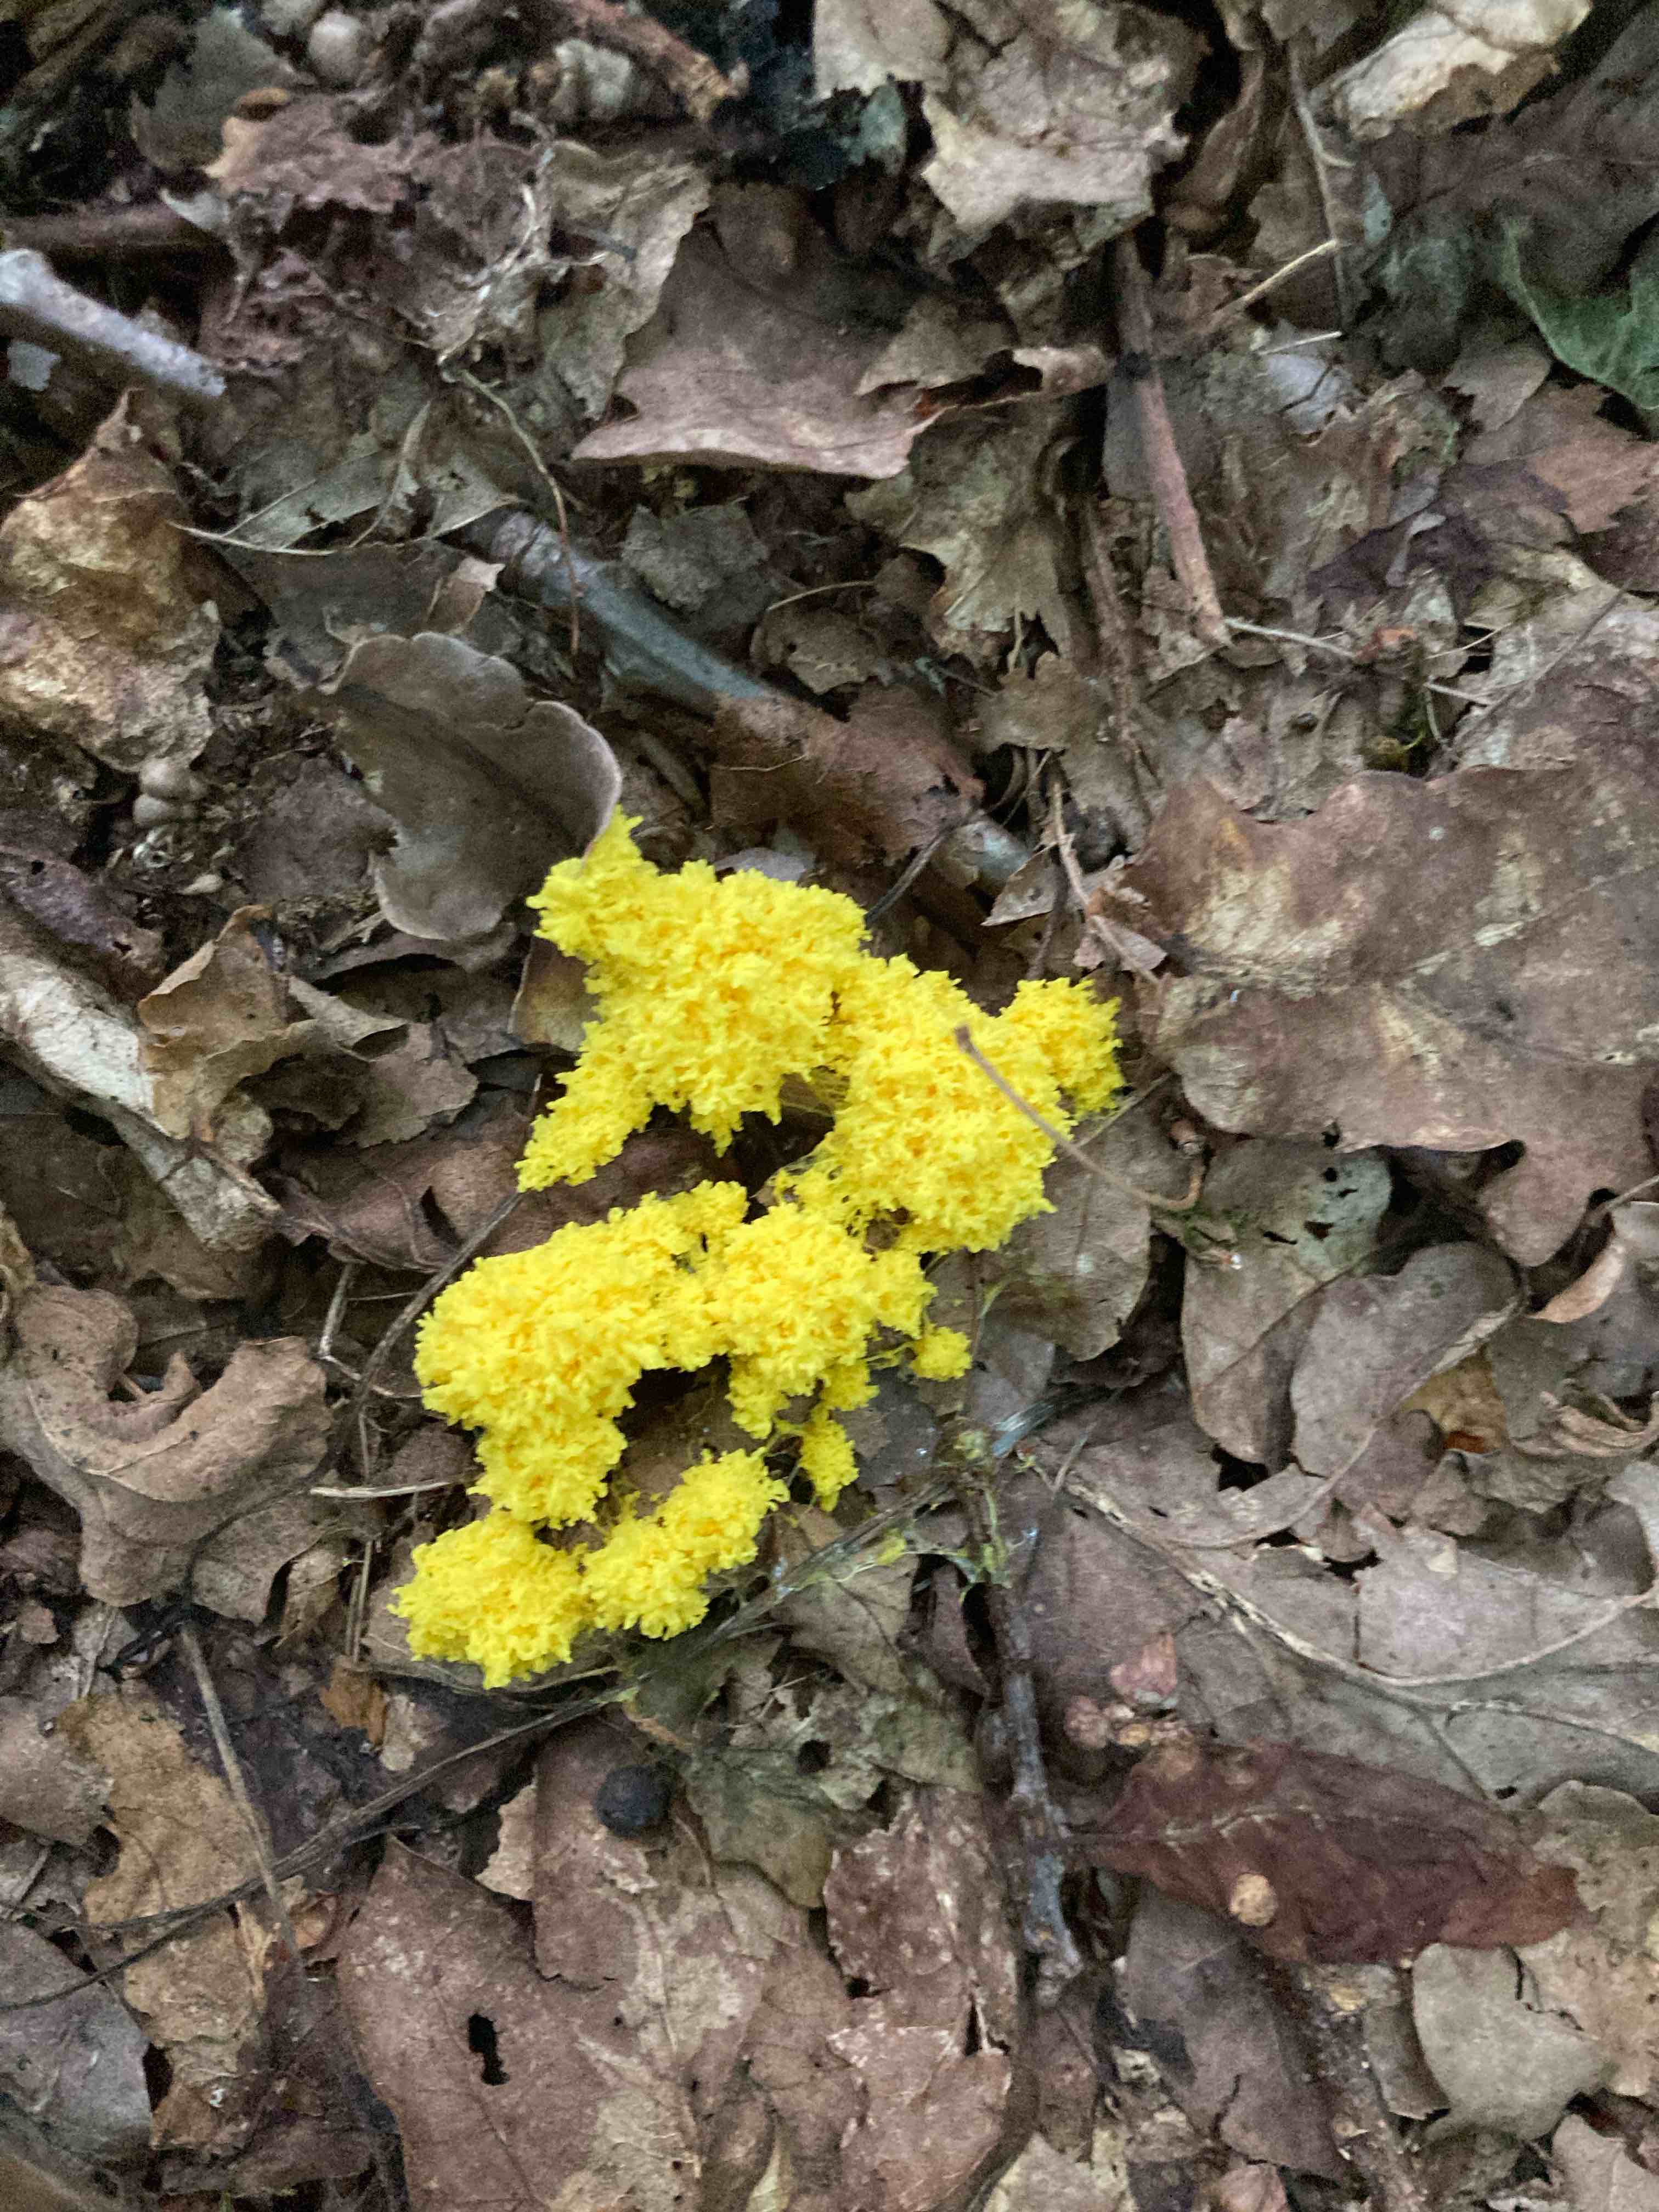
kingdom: Protozoa
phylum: Mycetozoa
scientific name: Mycetozoa
